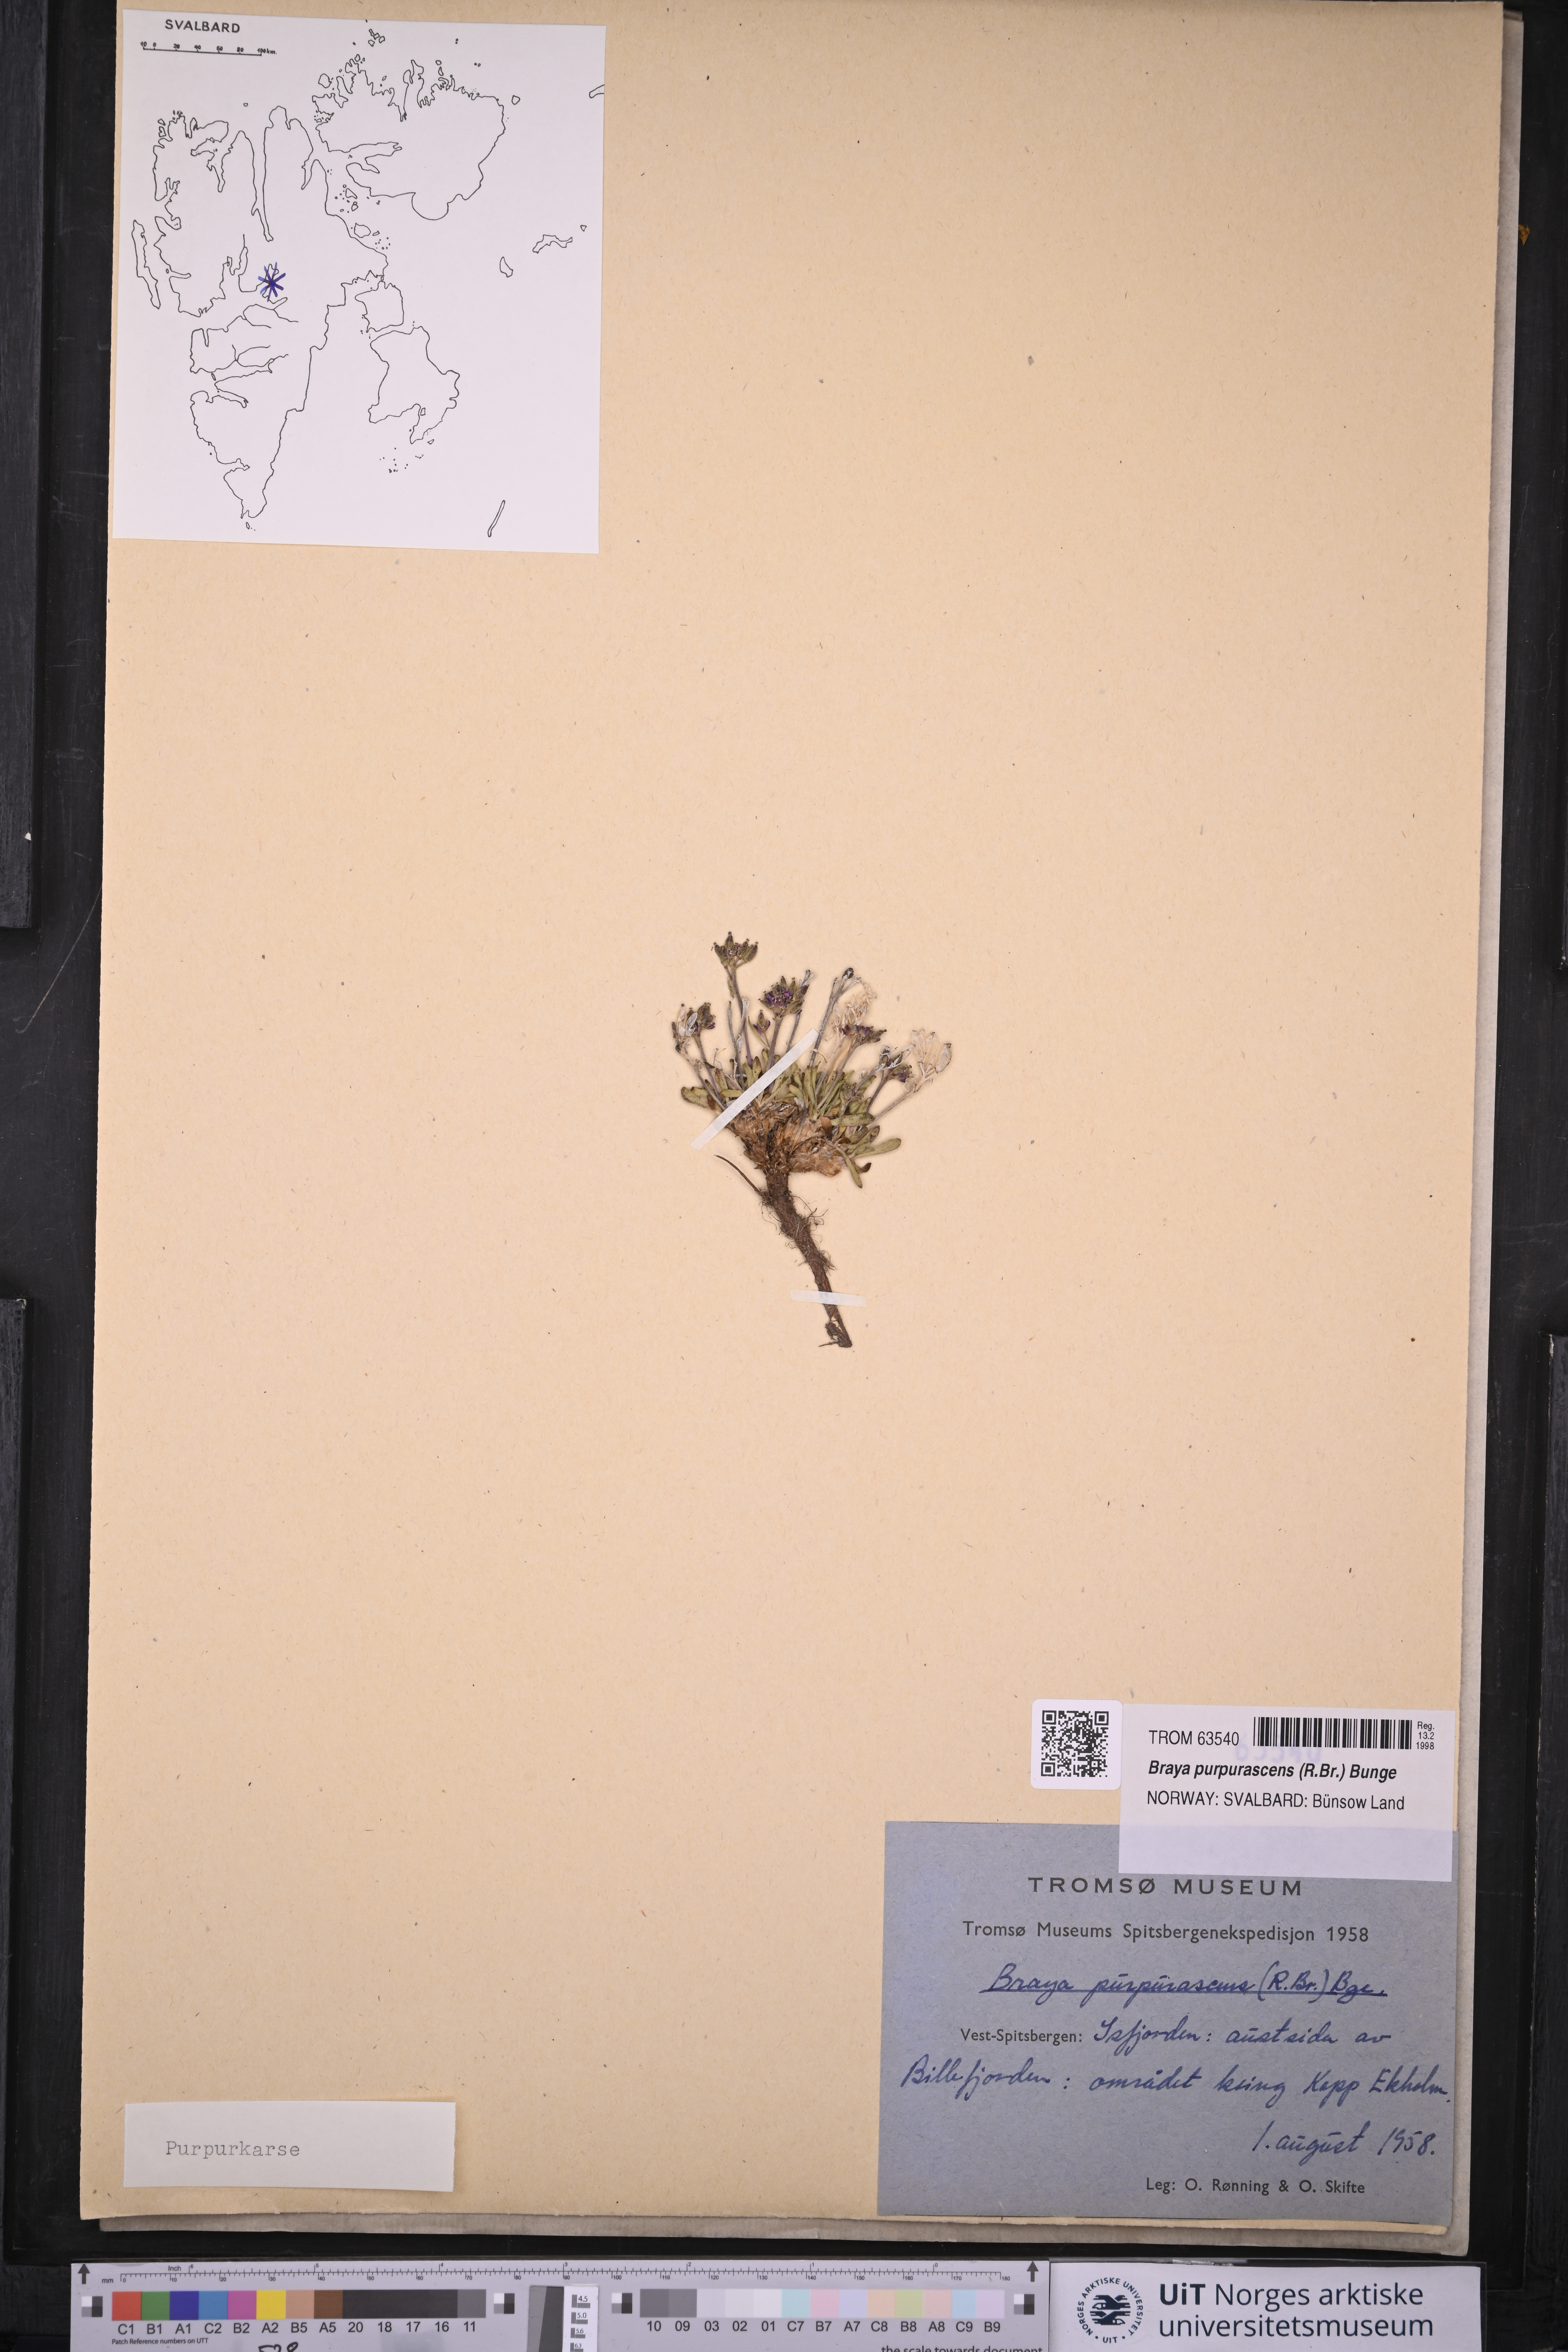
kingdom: Plantae
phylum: Tracheophyta
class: Magnoliopsida
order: Brassicales
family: Brassicaceae
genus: Braya
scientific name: Braya purpurascens
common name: Alpine braya
